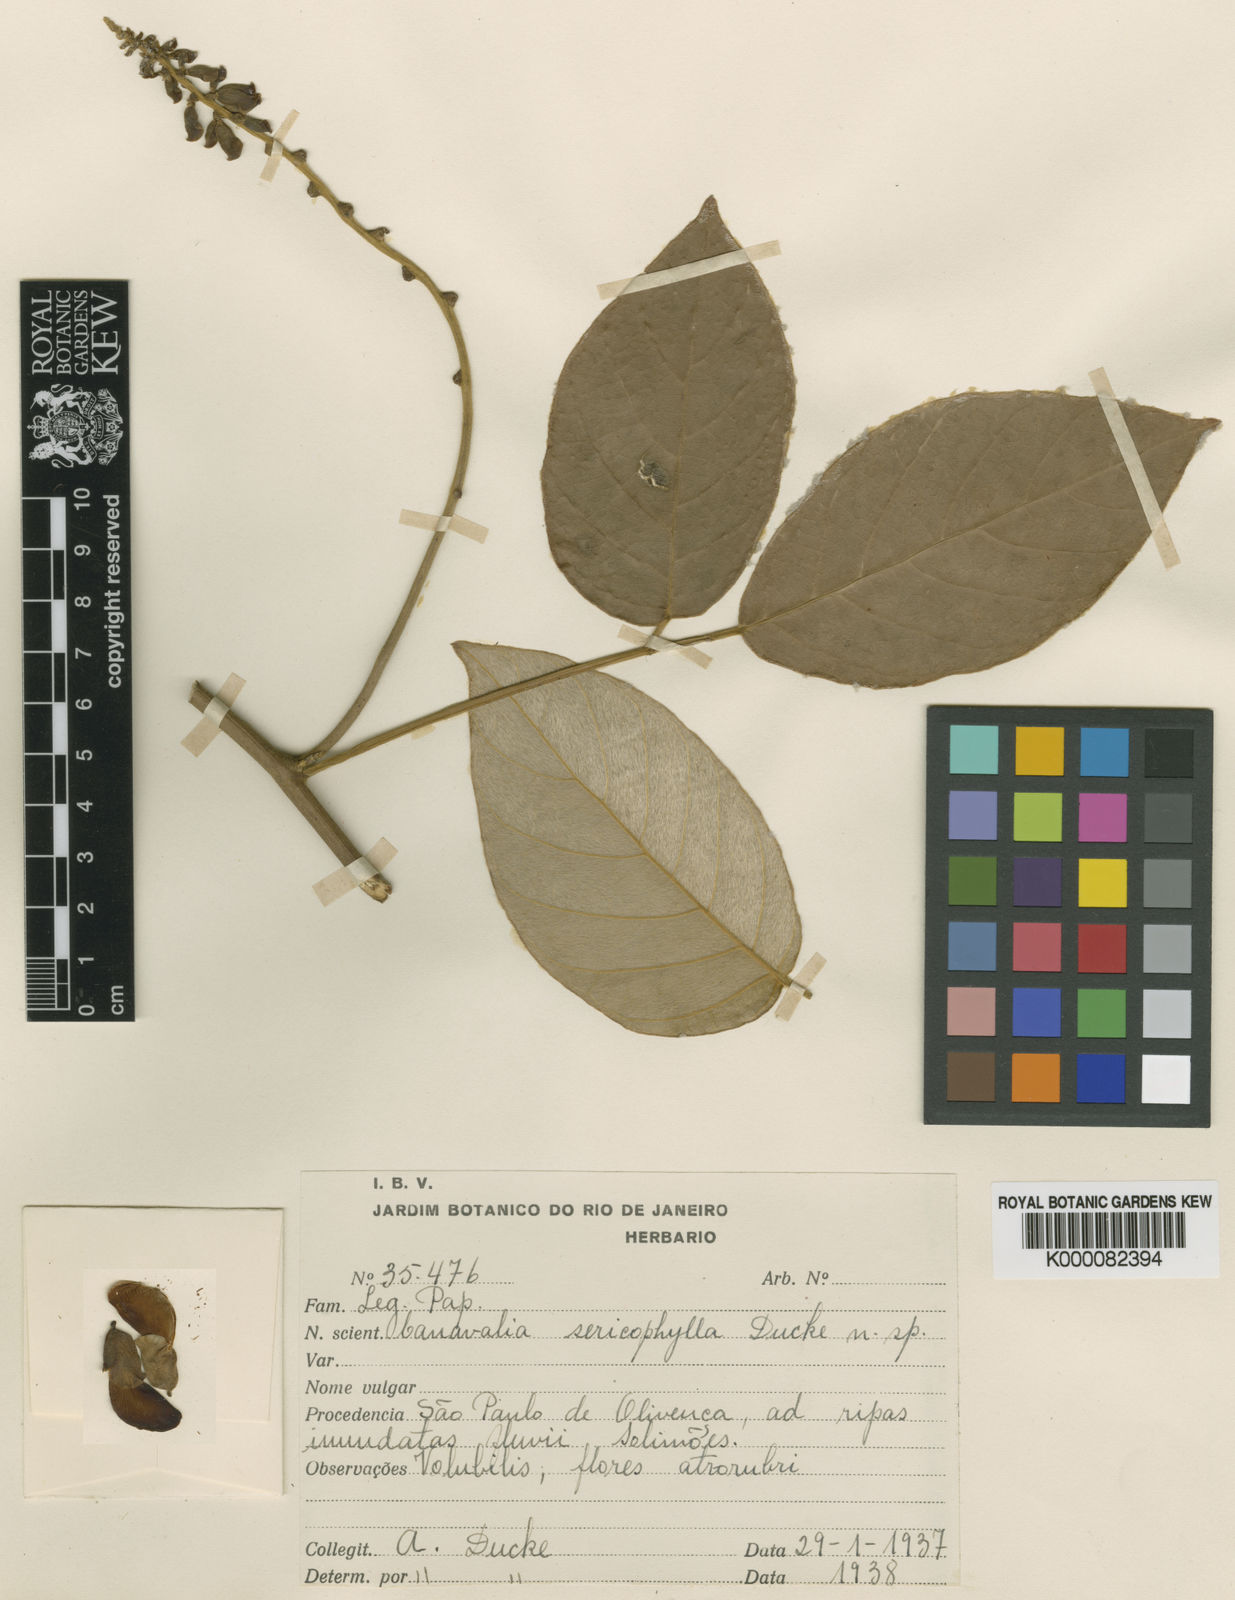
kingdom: Plantae
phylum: Tracheophyta
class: Magnoliopsida
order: Fabales
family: Fabaceae
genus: Canavalia
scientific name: Canavalia sericophylla
